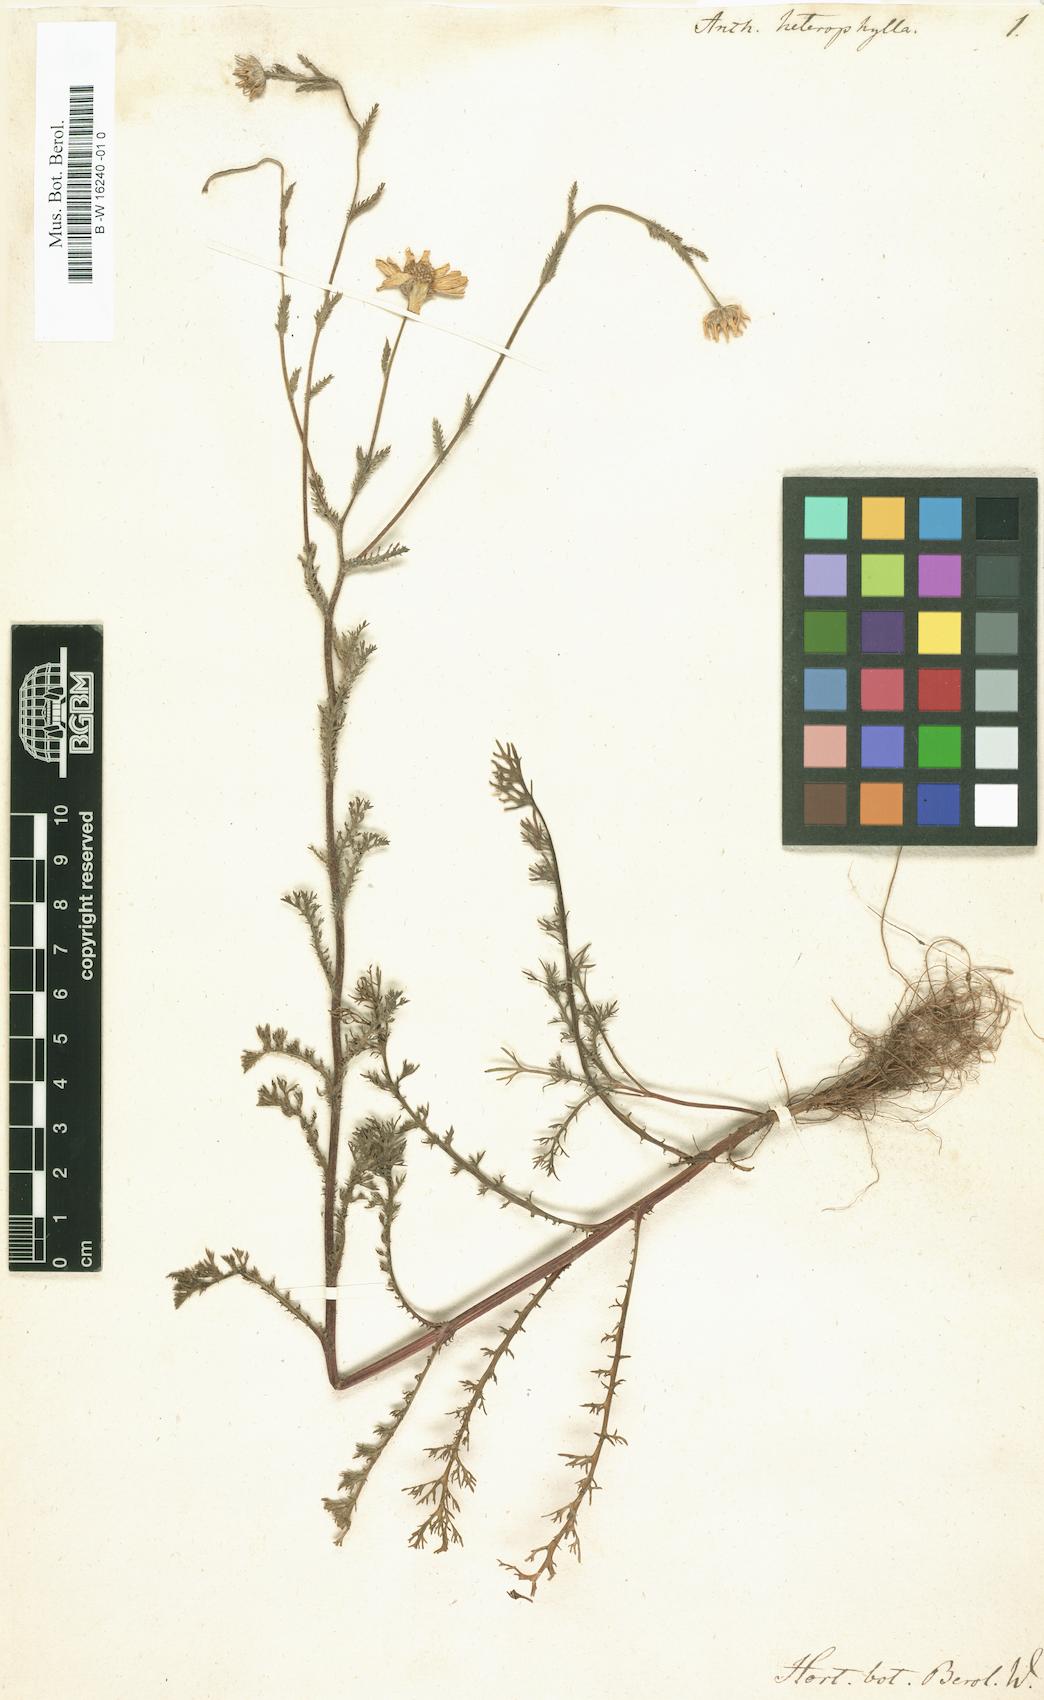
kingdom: Plantae
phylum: Tracheophyta
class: Magnoliopsida
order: Asterales
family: Asteraceae
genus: Anthemis
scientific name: Anthemis heterophylla
